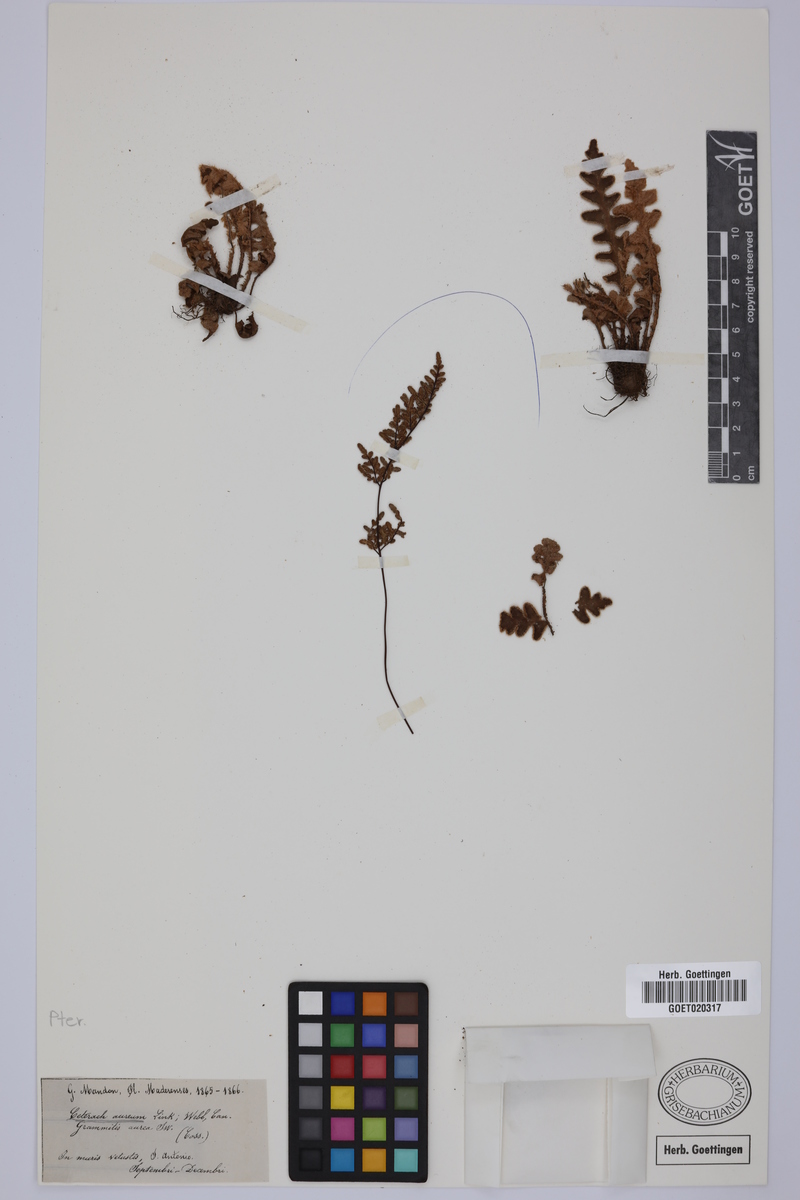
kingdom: Plantae
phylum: Tracheophyta
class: Polypodiopsida
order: Polypodiales
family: Aspleniaceae
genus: Asplenium
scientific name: Asplenium aureum
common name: Golden rustyback fern
